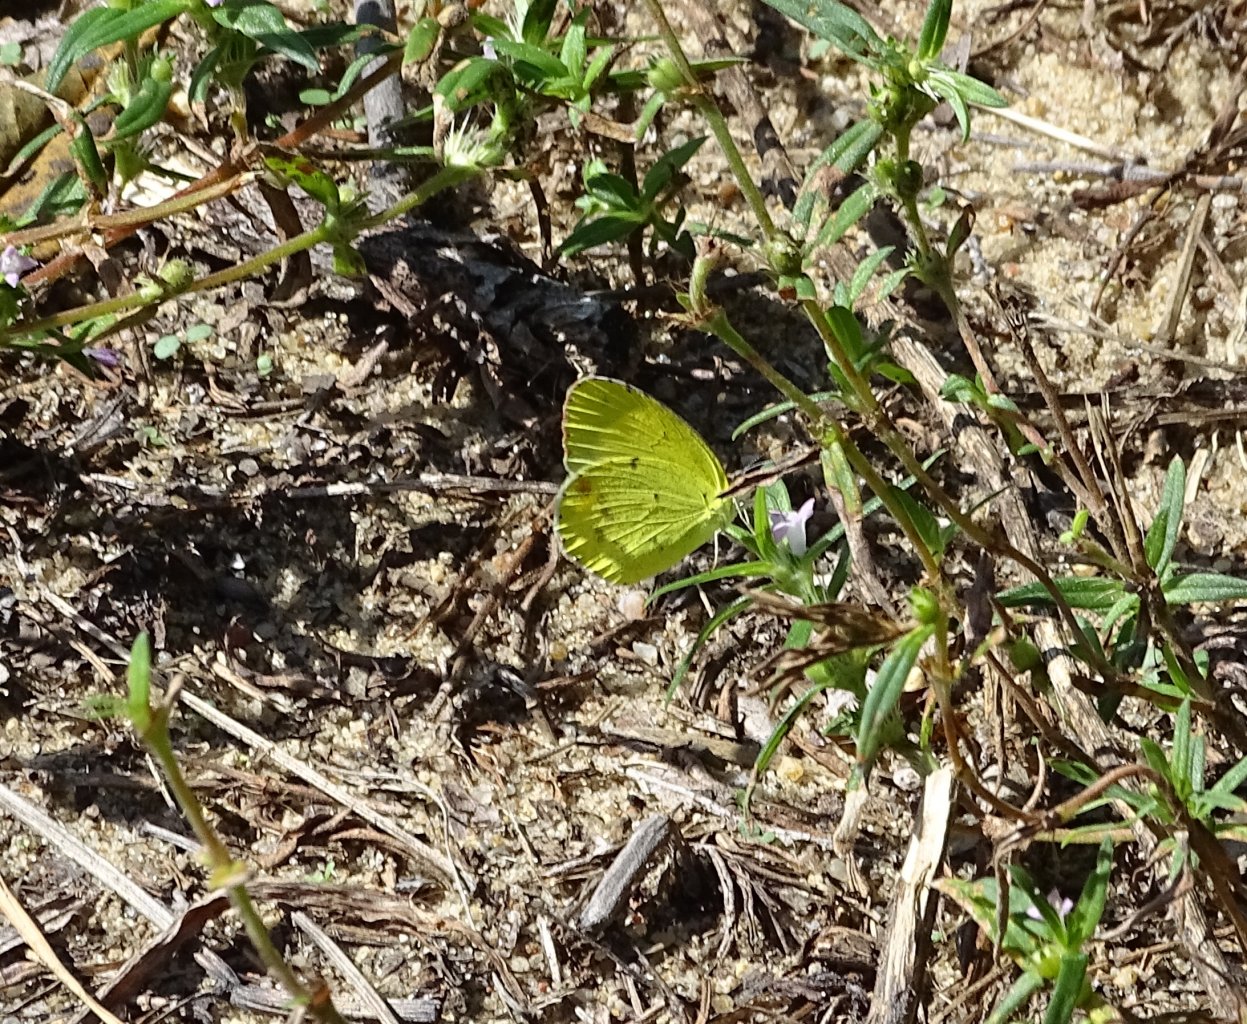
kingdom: Animalia
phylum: Arthropoda
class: Insecta
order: Lepidoptera
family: Pieridae
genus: Pyrisitia
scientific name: Pyrisitia lisa
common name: Little Yellow
